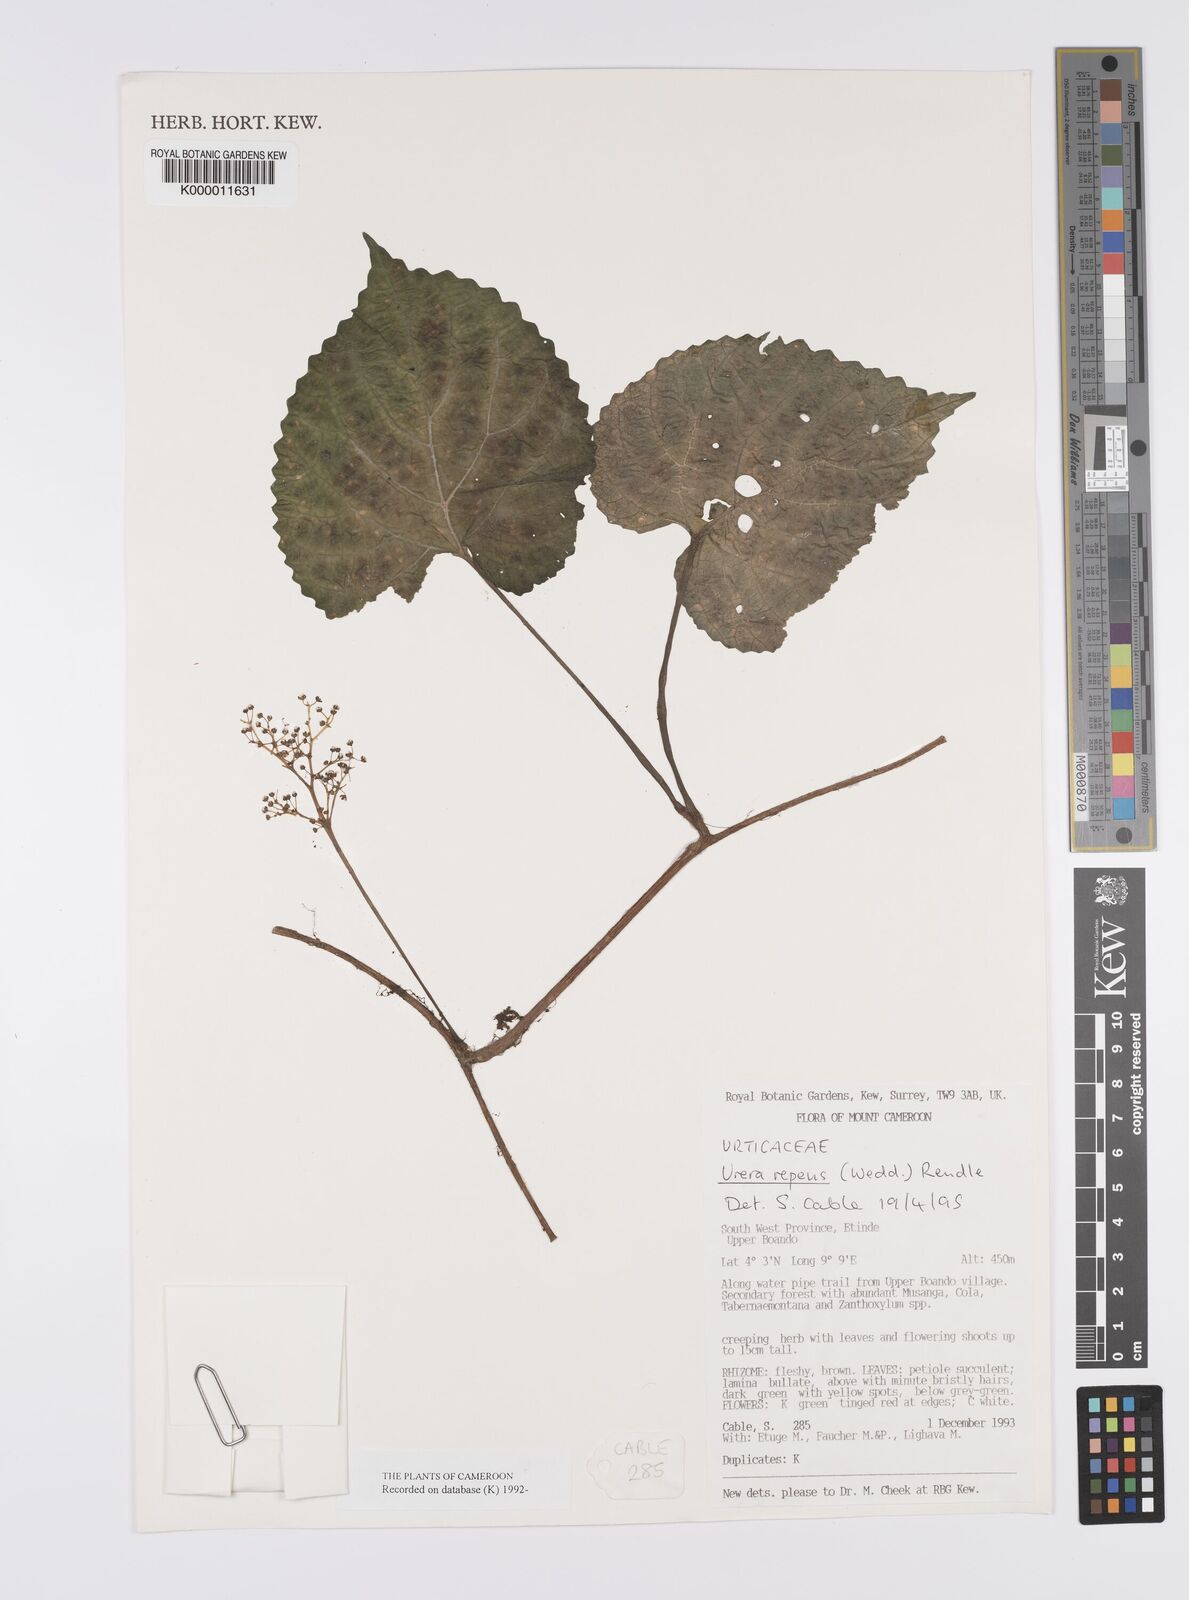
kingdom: Plantae
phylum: Tracheophyta
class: Magnoliopsida
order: Rosales
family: Urticaceae
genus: Scepocarpus
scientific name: Scepocarpus repens
